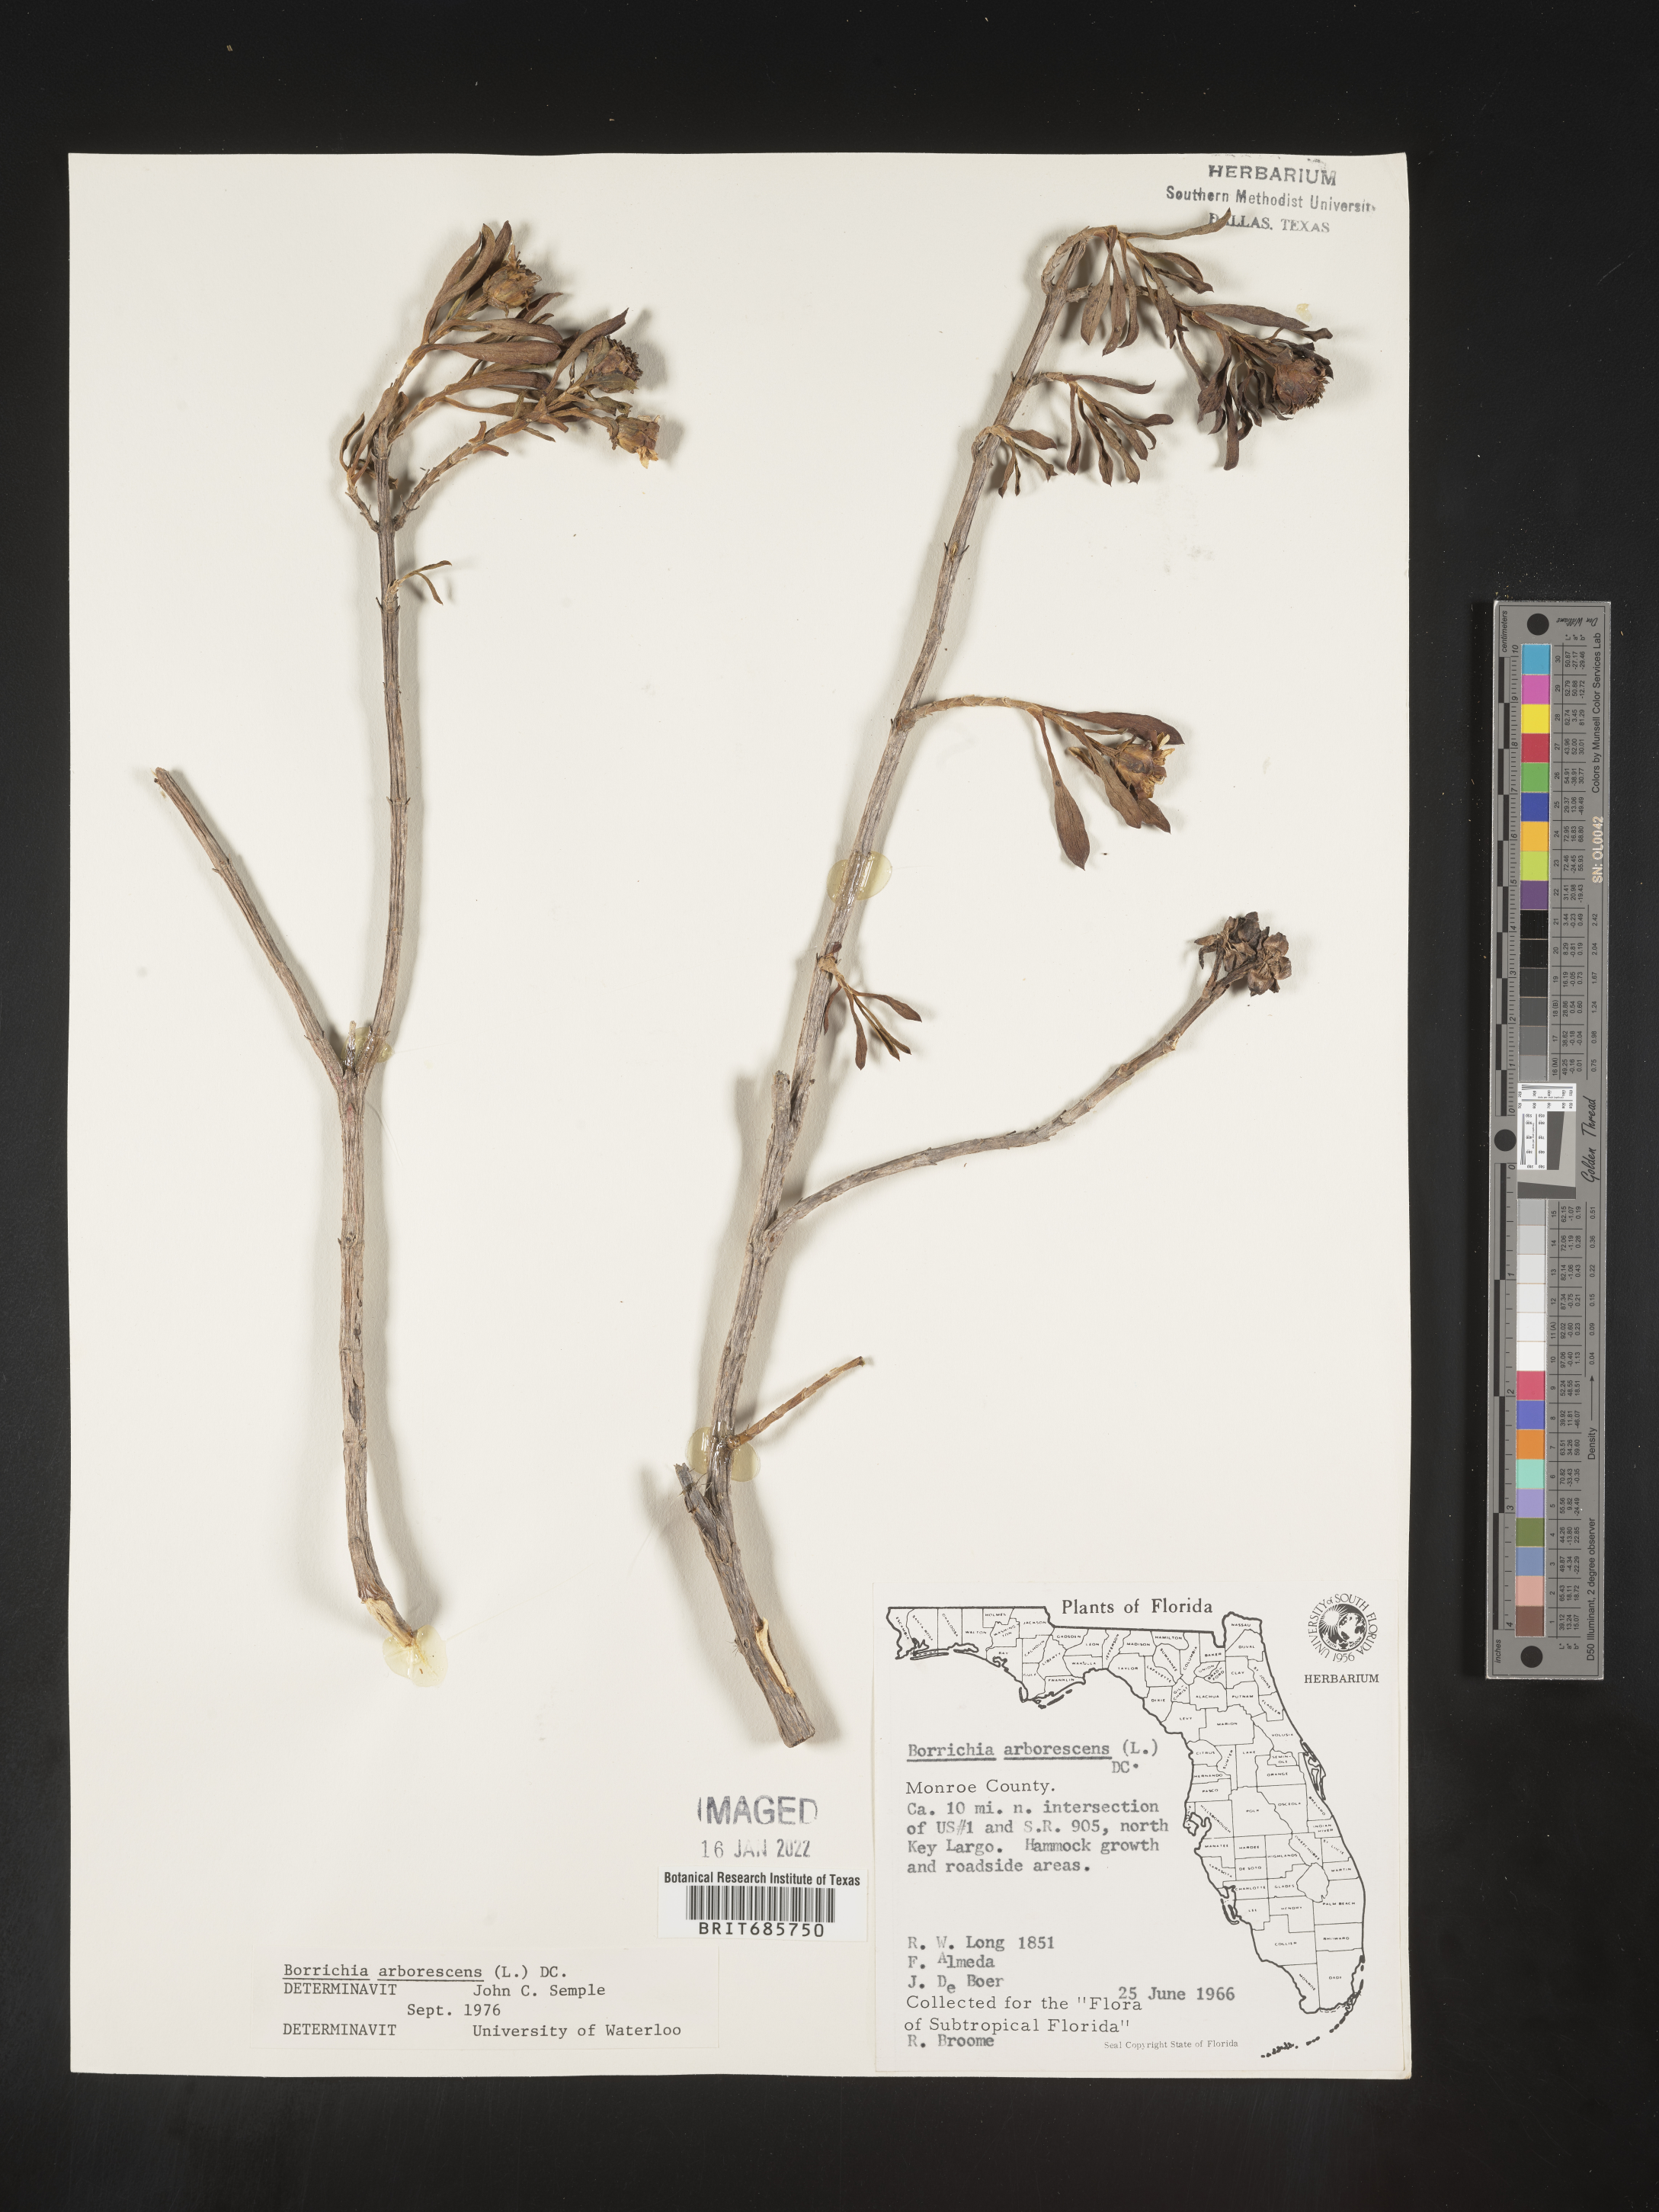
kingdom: Plantae
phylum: Tracheophyta
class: Magnoliopsida
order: Asterales
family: Asteraceae
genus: Borrichia
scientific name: Borrichia frutescens
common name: Sea oxeye
